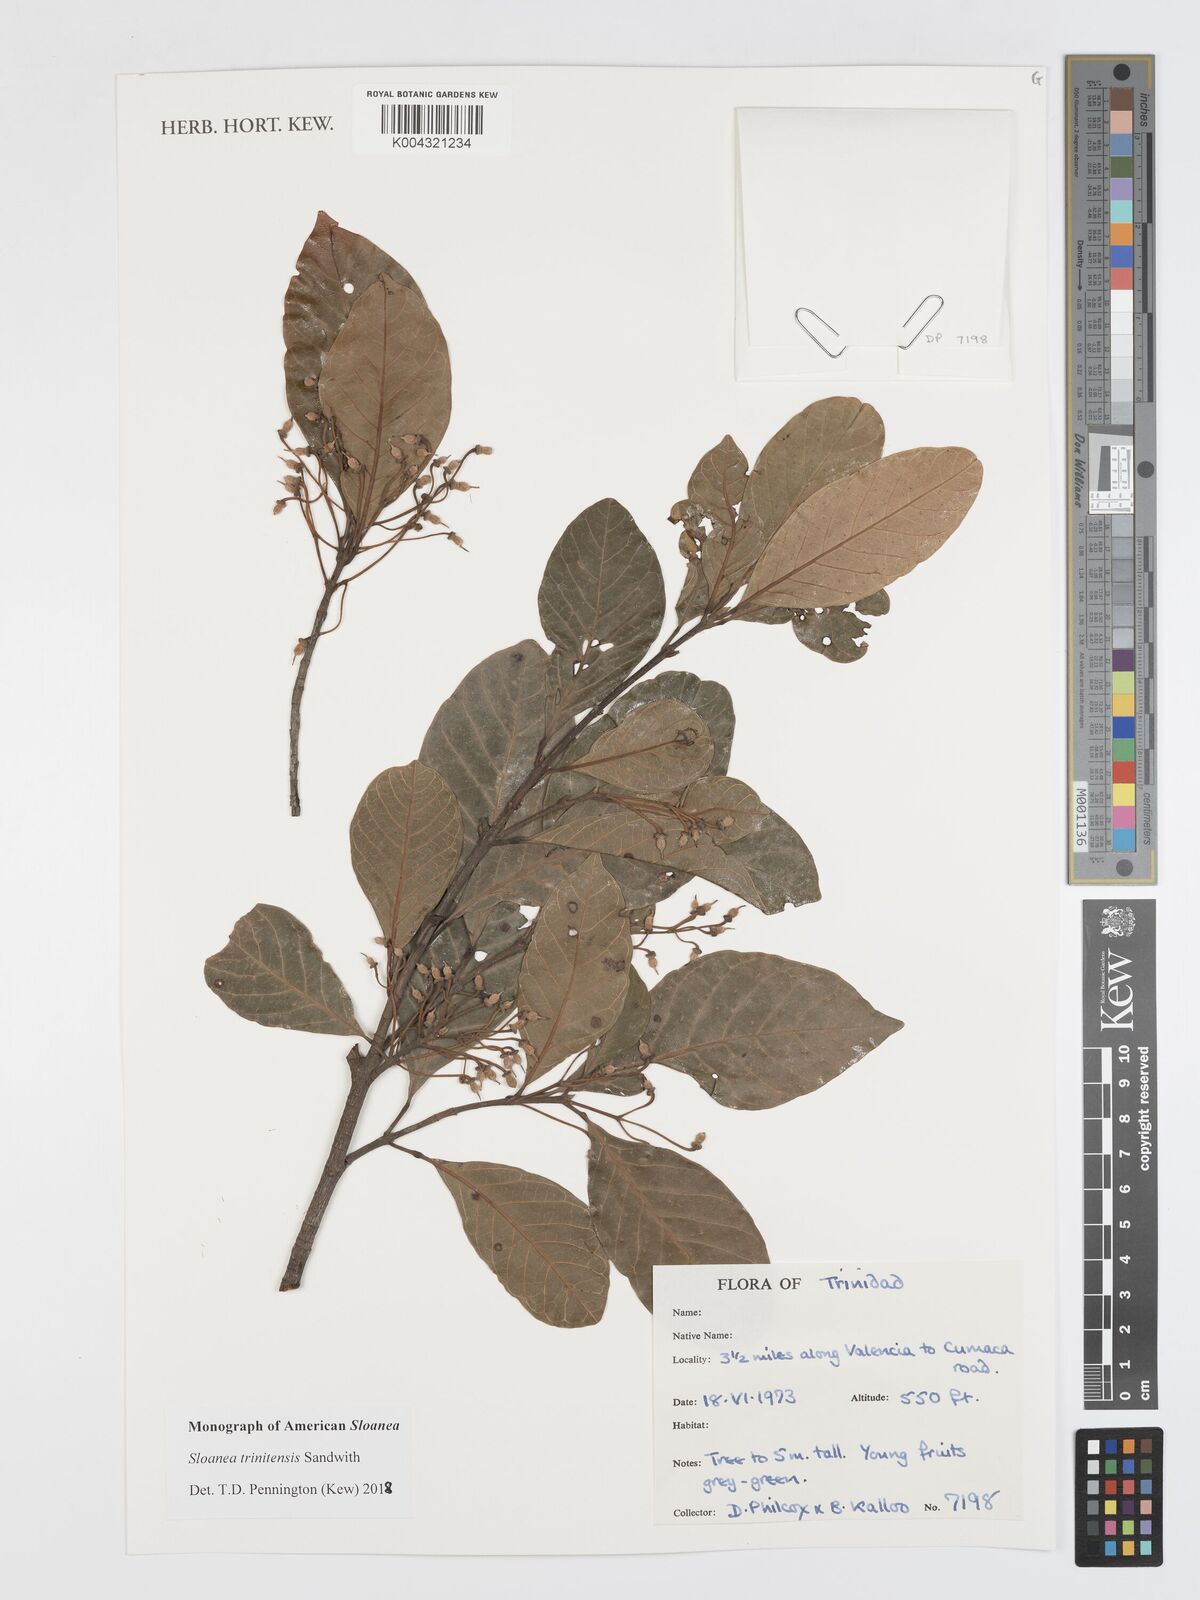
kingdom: Plantae
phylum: Tracheophyta
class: Magnoliopsida
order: Oxalidales
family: Elaeocarpaceae
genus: Sloanea
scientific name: Sloanea laurifolia
